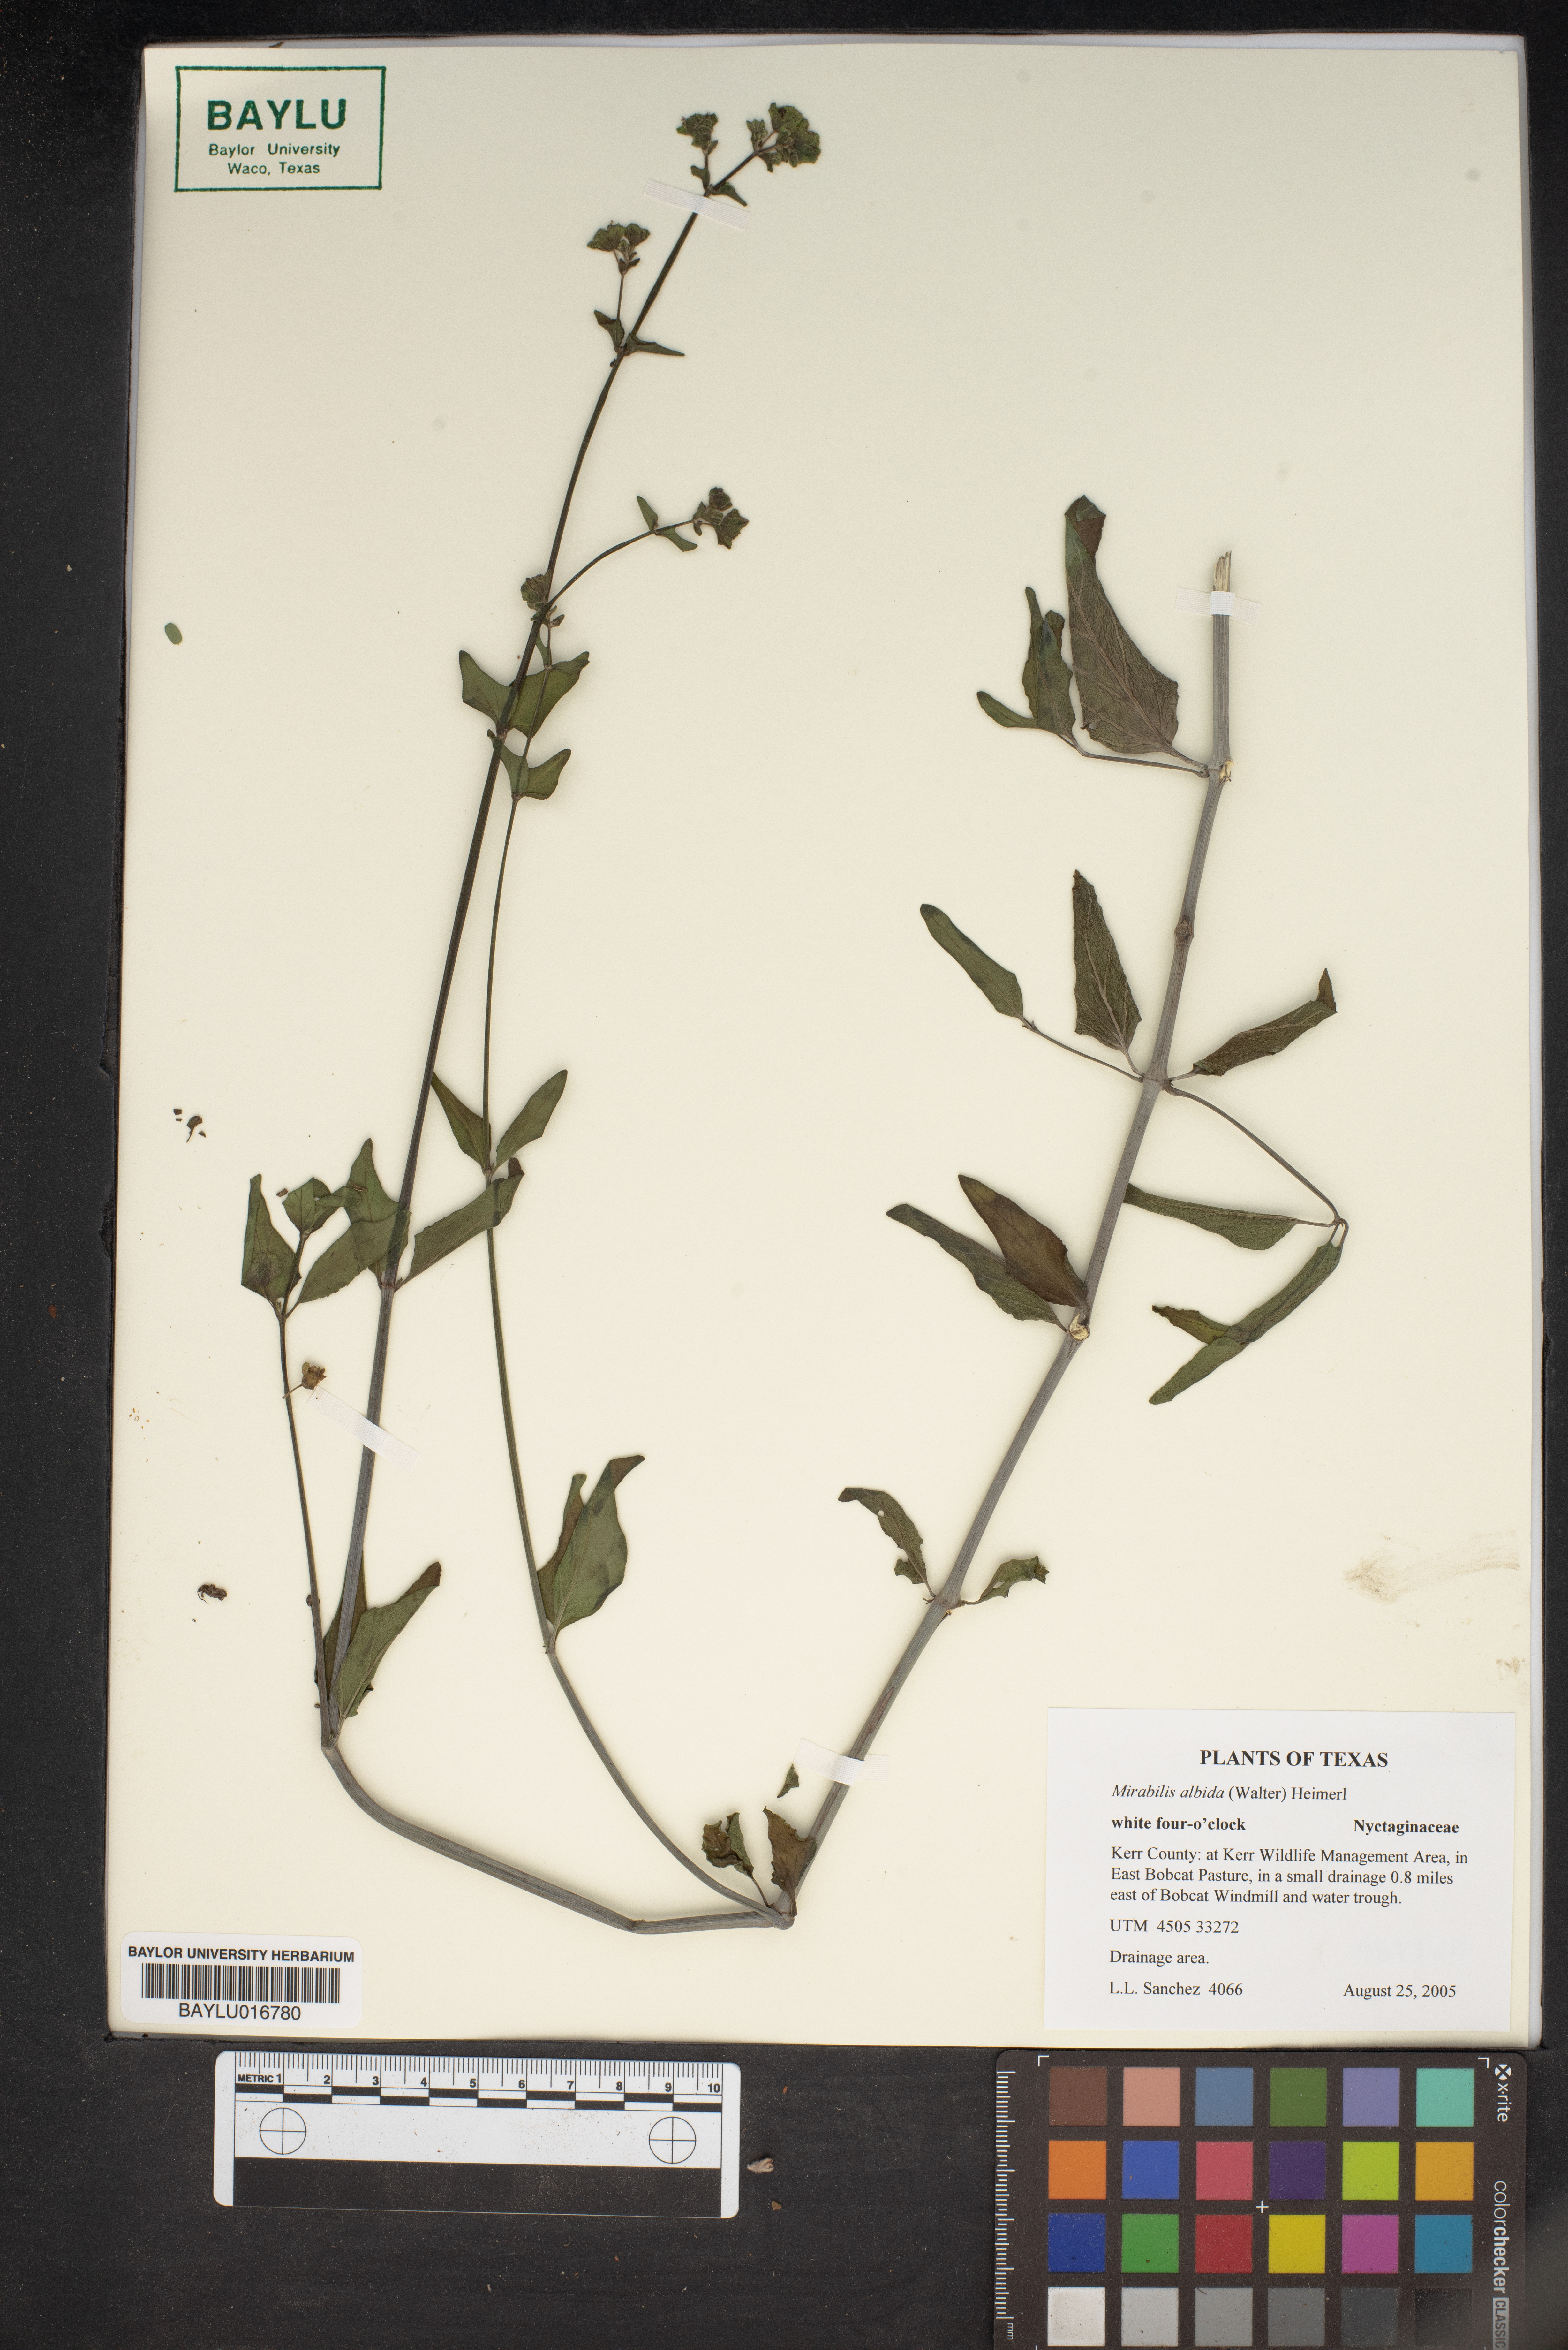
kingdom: Plantae
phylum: Tracheophyta
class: Magnoliopsida
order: Caryophyllales
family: Nyctaginaceae
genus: Mirabilis
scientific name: Mirabilis albida
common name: Hairy four-o'clock
